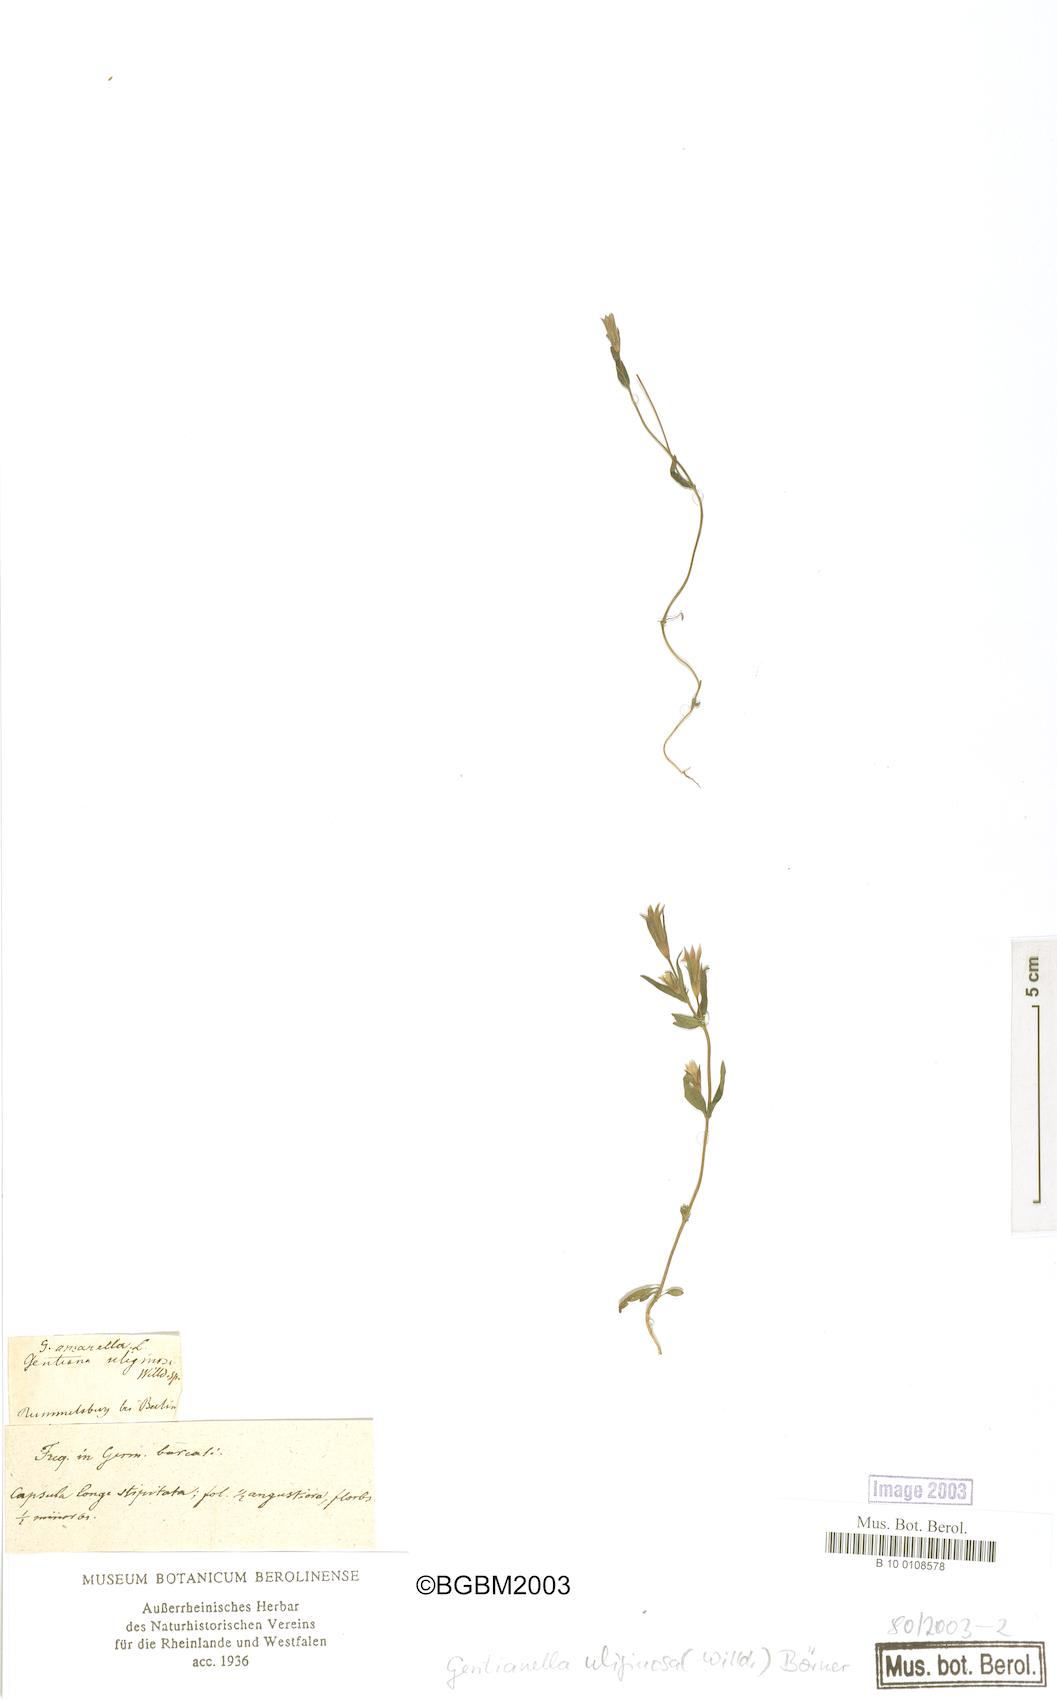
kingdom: Plantae
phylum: Tracheophyta
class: Magnoliopsida
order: Gentianales
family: Gentianaceae
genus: Gentianella
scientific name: Gentianella uliginosa
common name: Dune gentian
